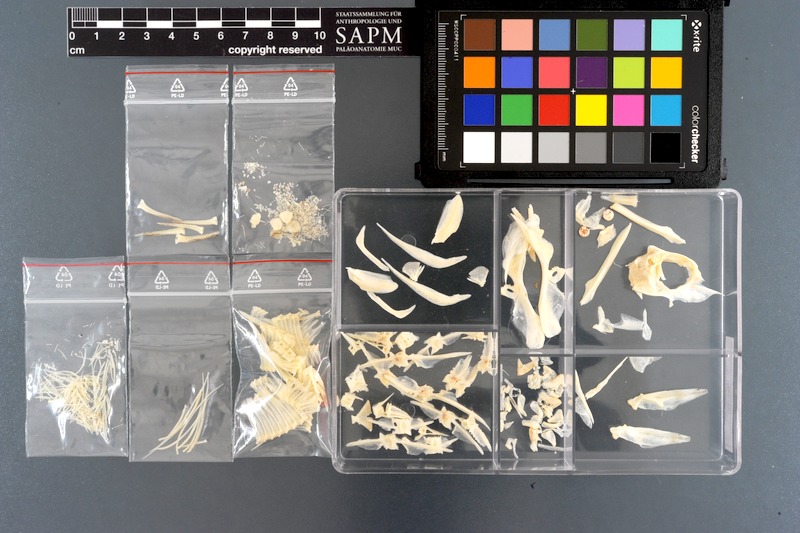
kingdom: Animalia
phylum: Chordata
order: Perciformes
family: Monodactylidae
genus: Monodactylus
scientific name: Monodactylus argenteus
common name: Silver moony
